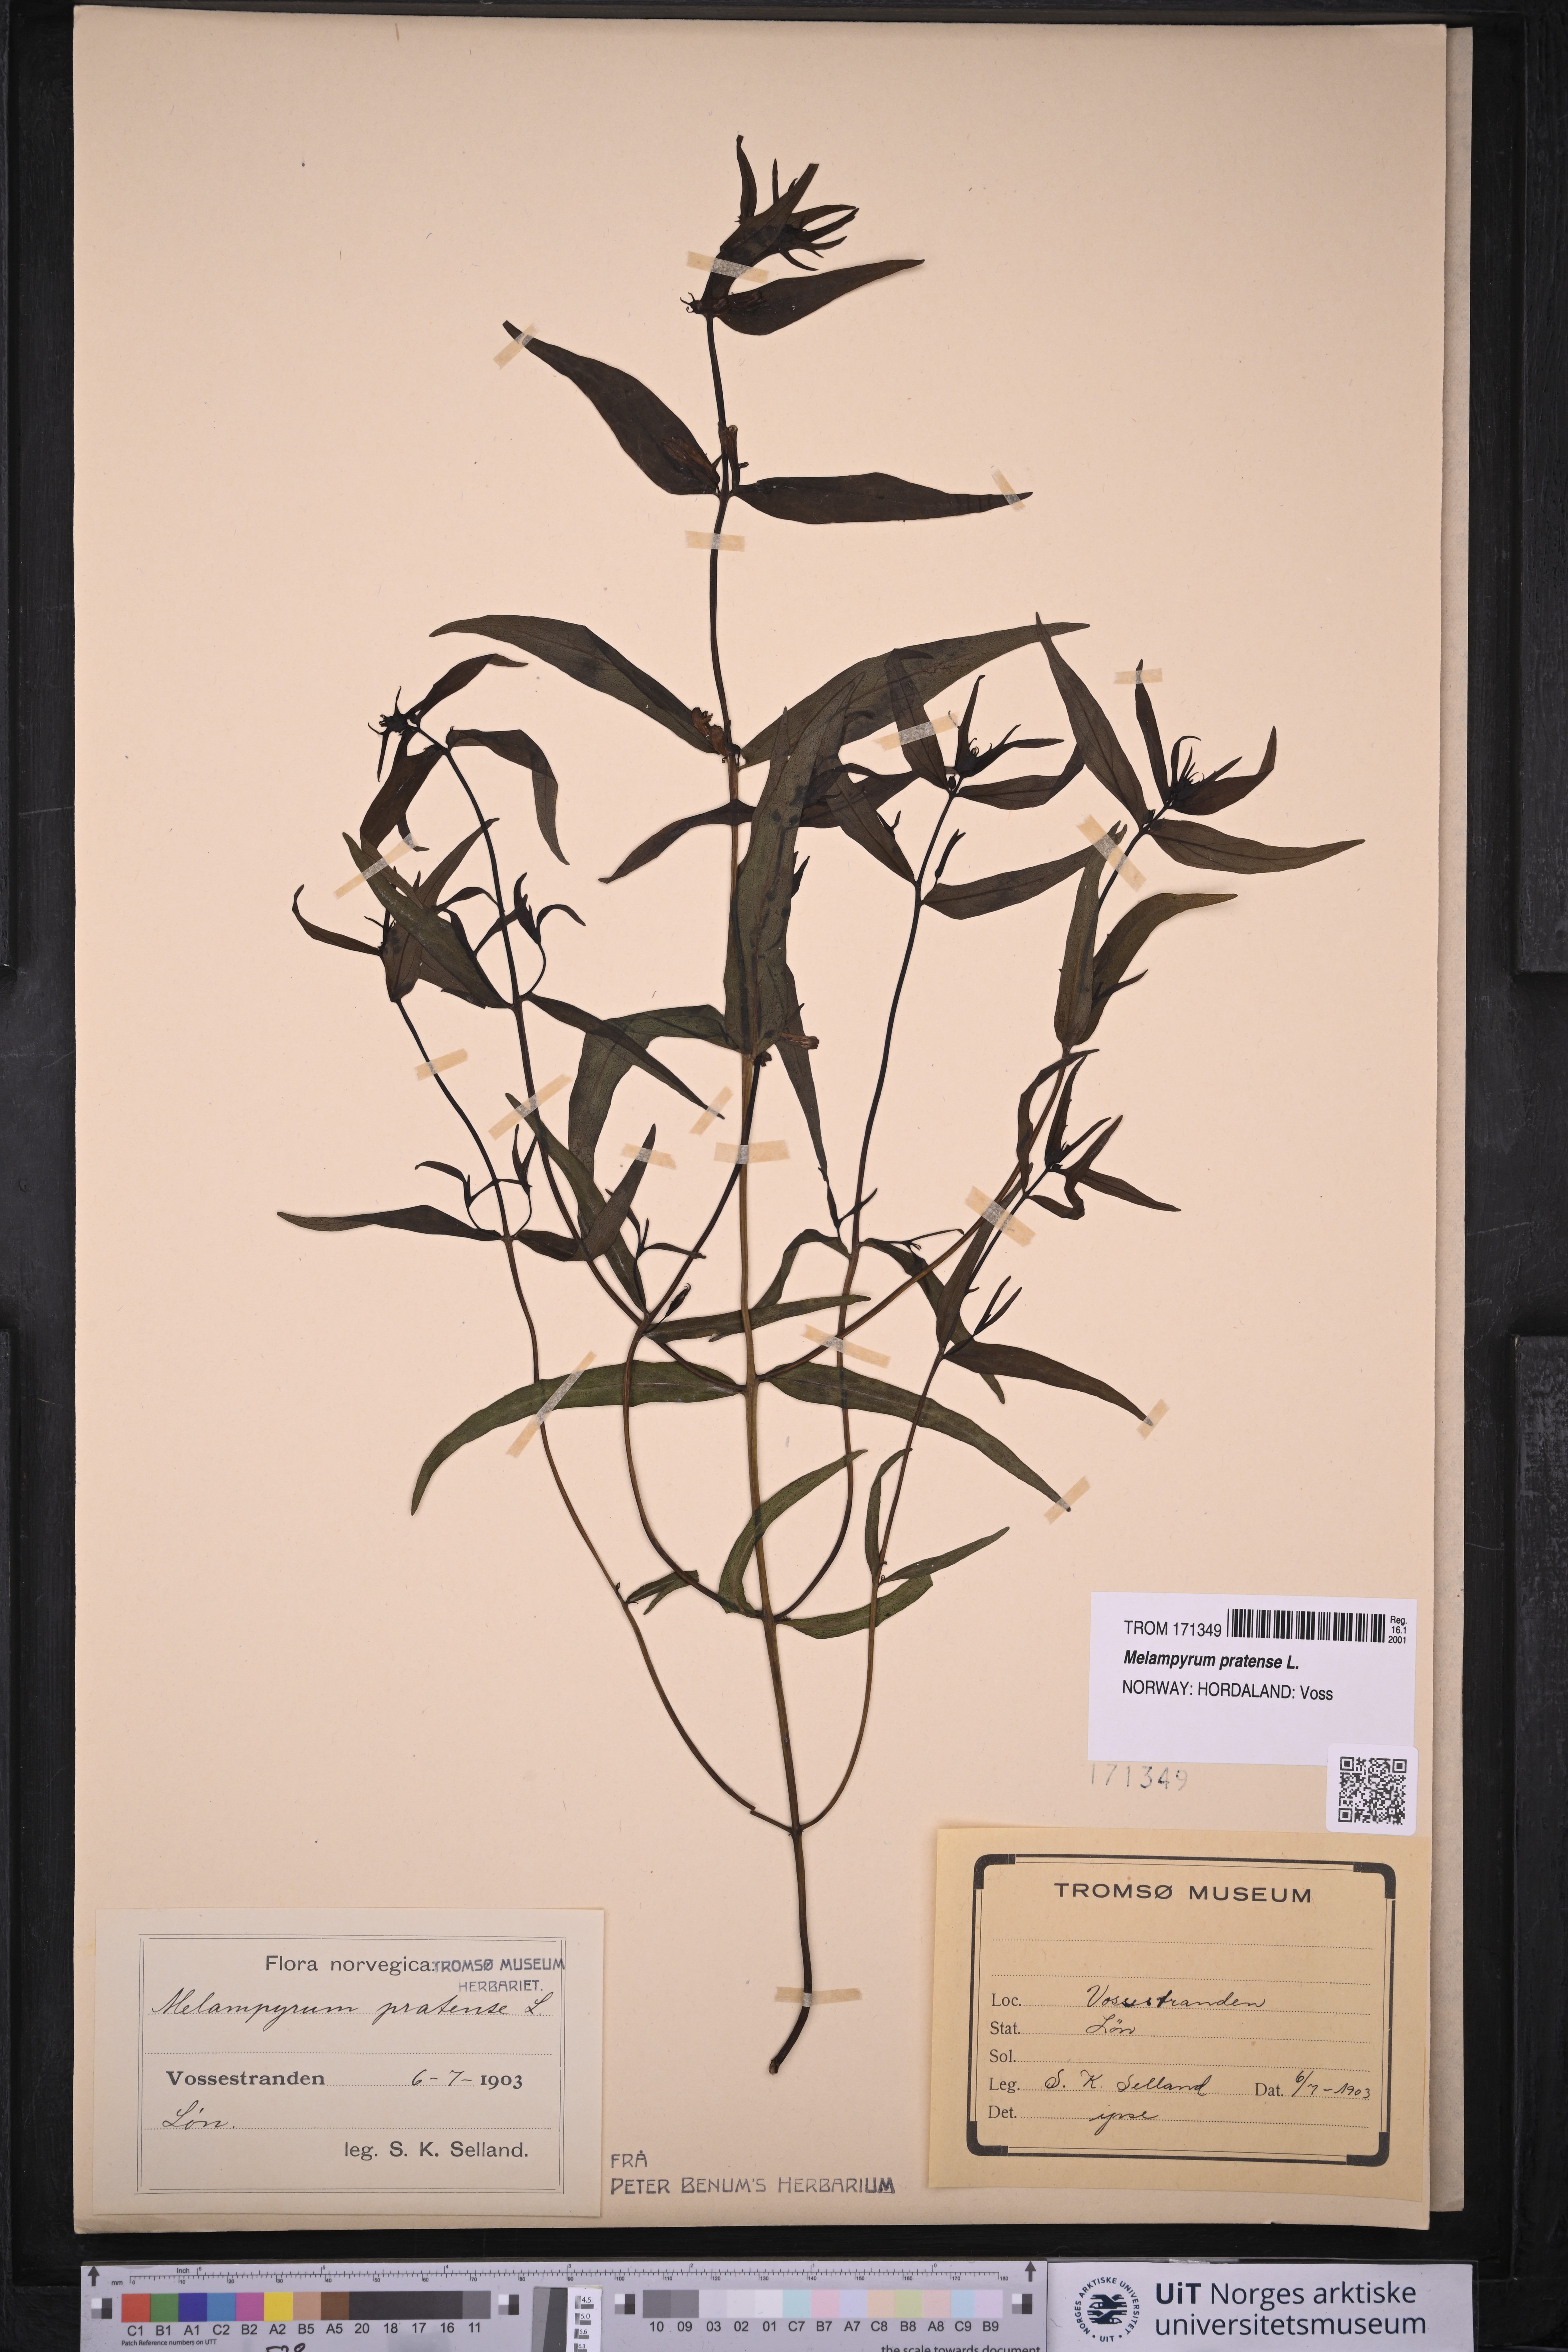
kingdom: Plantae
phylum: Tracheophyta
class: Magnoliopsida
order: Lamiales
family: Orobanchaceae
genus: Melampyrum
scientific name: Melampyrum pratense
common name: Common cow-wheat
